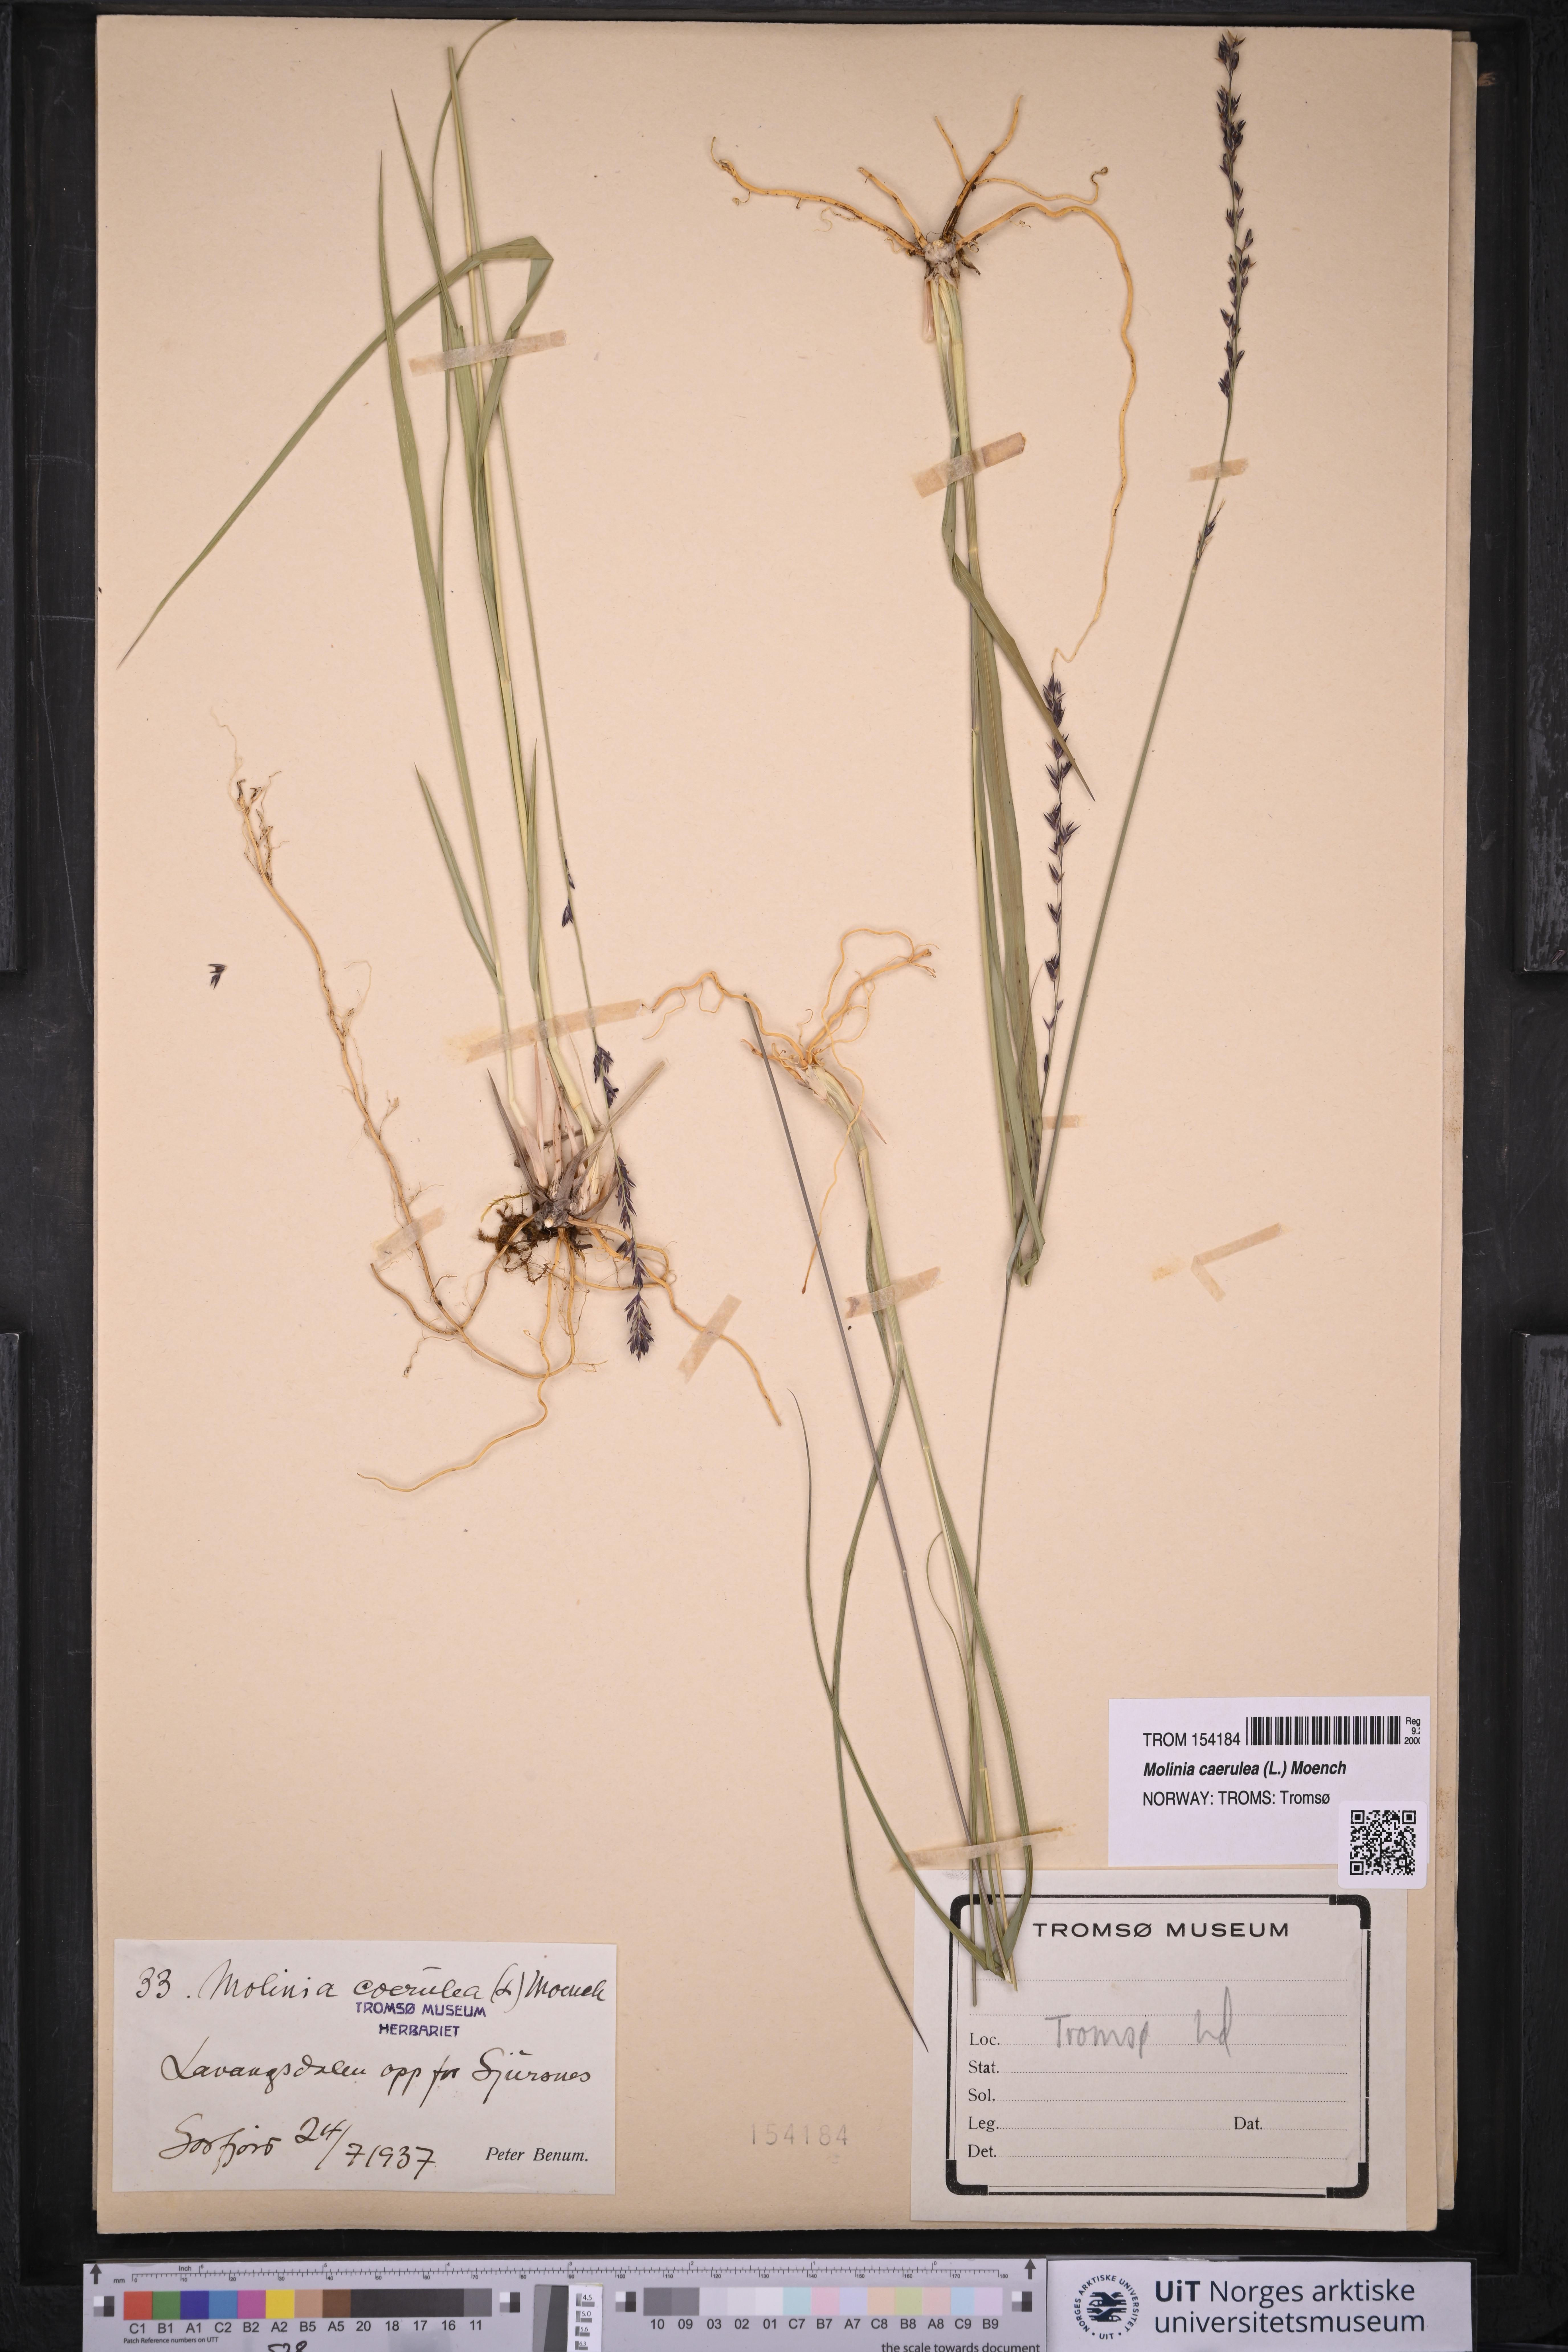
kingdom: Plantae
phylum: Tracheophyta
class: Liliopsida
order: Poales
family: Poaceae
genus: Molinia
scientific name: Molinia caerulea
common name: Purple moor-grass
